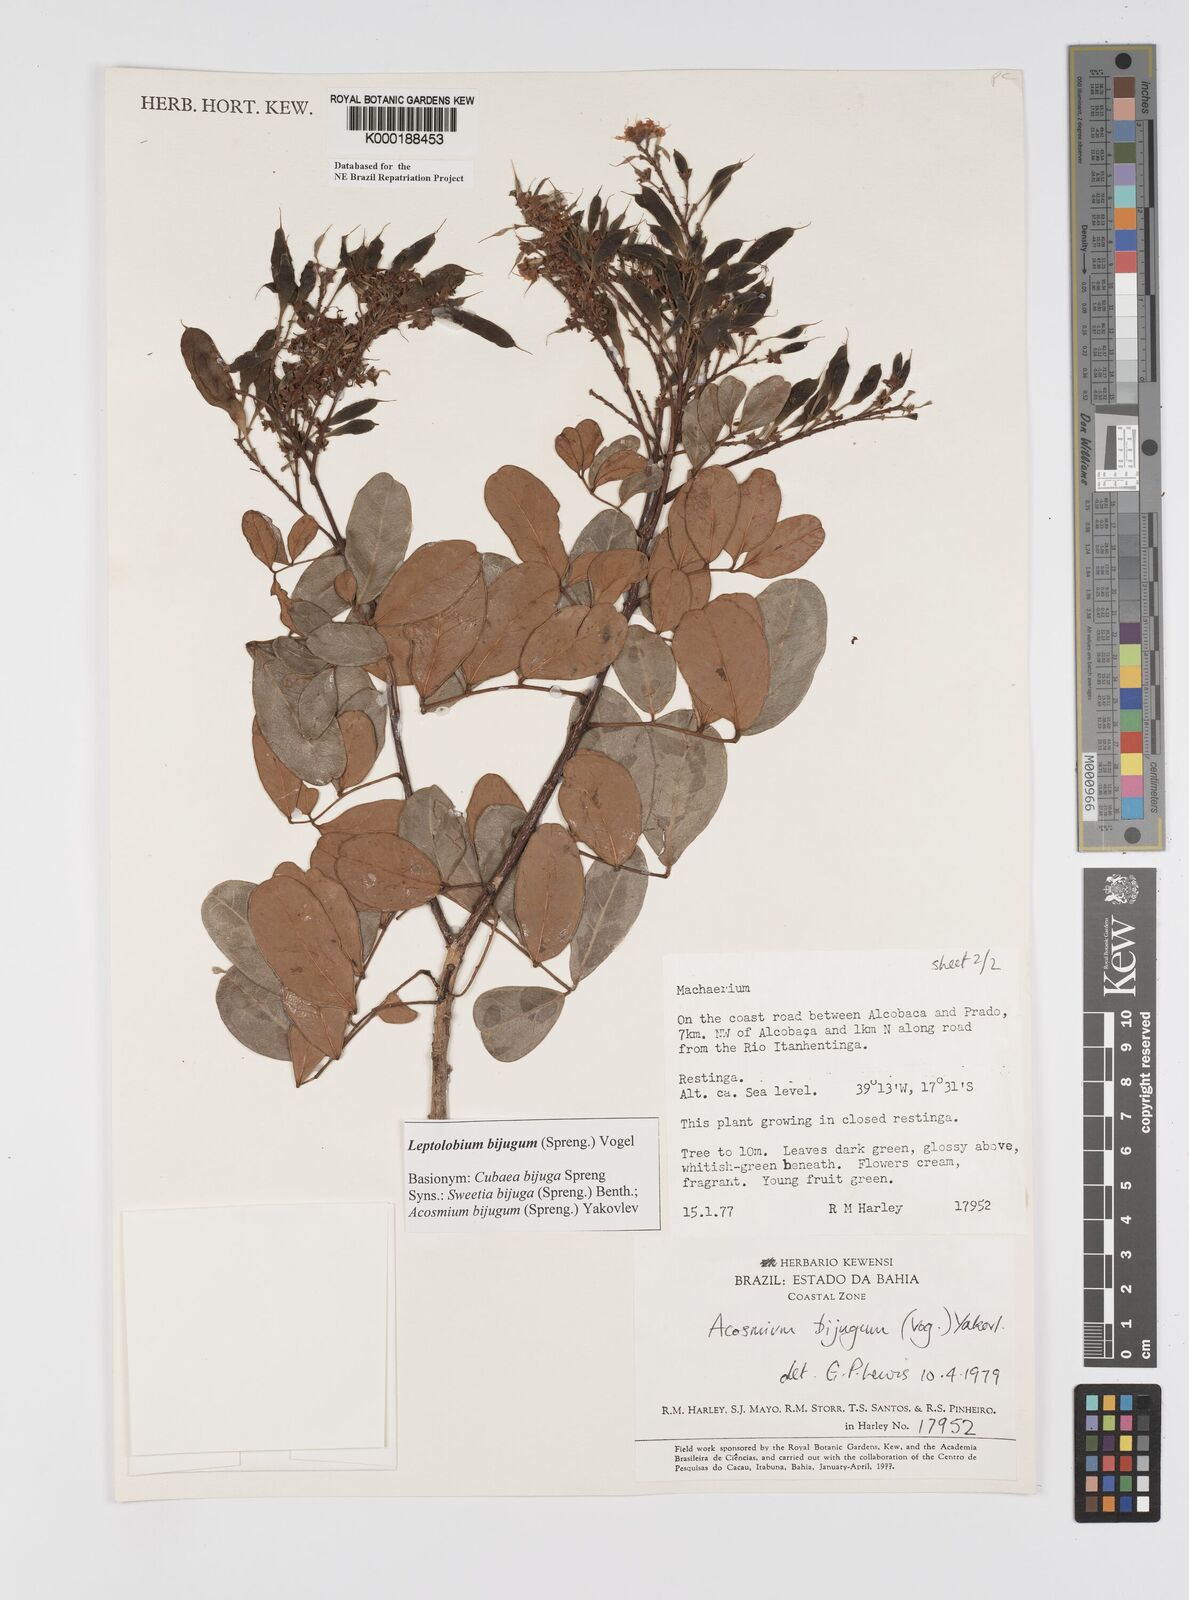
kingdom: Plantae
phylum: Tracheophyta
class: Magnoliopsida
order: Fabales
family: Fabaceae
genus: Leptolobium
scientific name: Leptolobium bijugum
